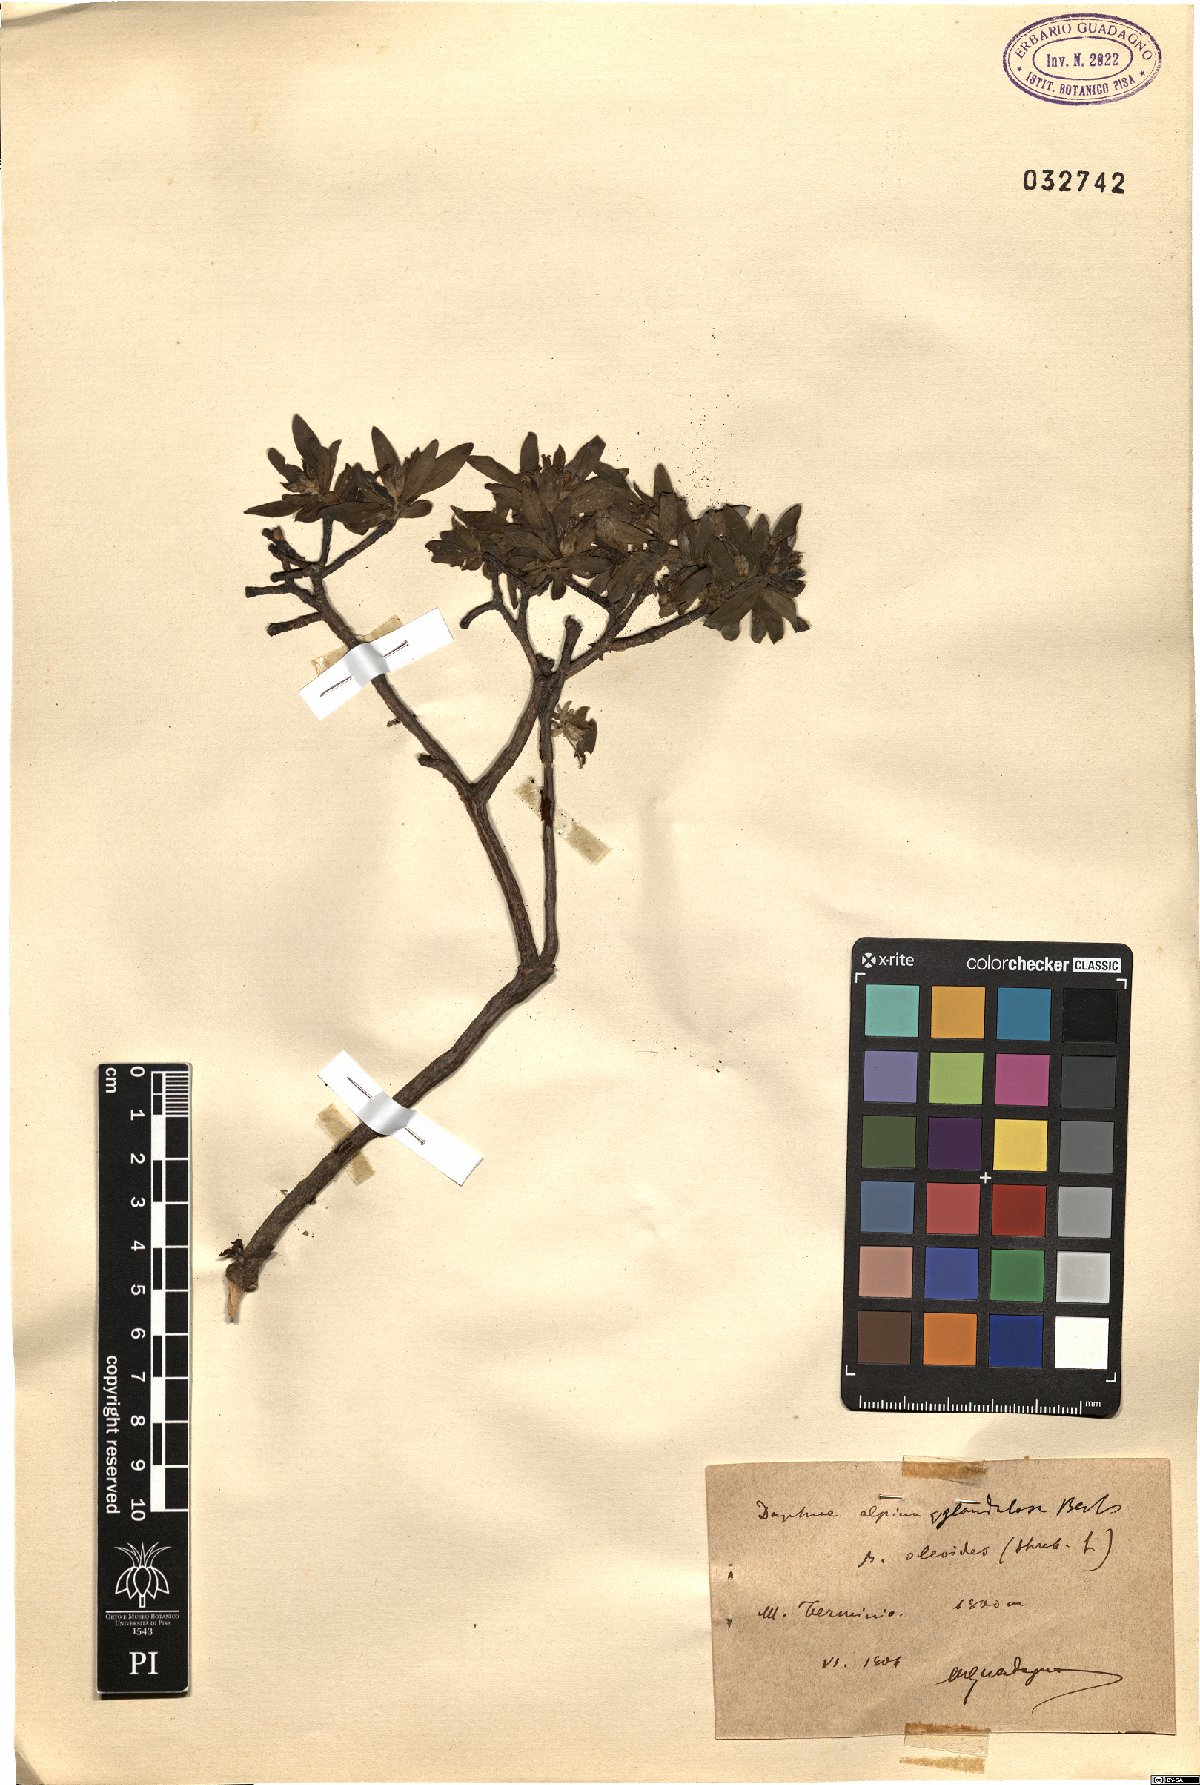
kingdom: Plantae
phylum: Tracheophyta
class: Magnoliopsida
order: Malvales
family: Thymelaeaceae
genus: Daphne
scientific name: Daphne oleoides
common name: Spurge-olive
